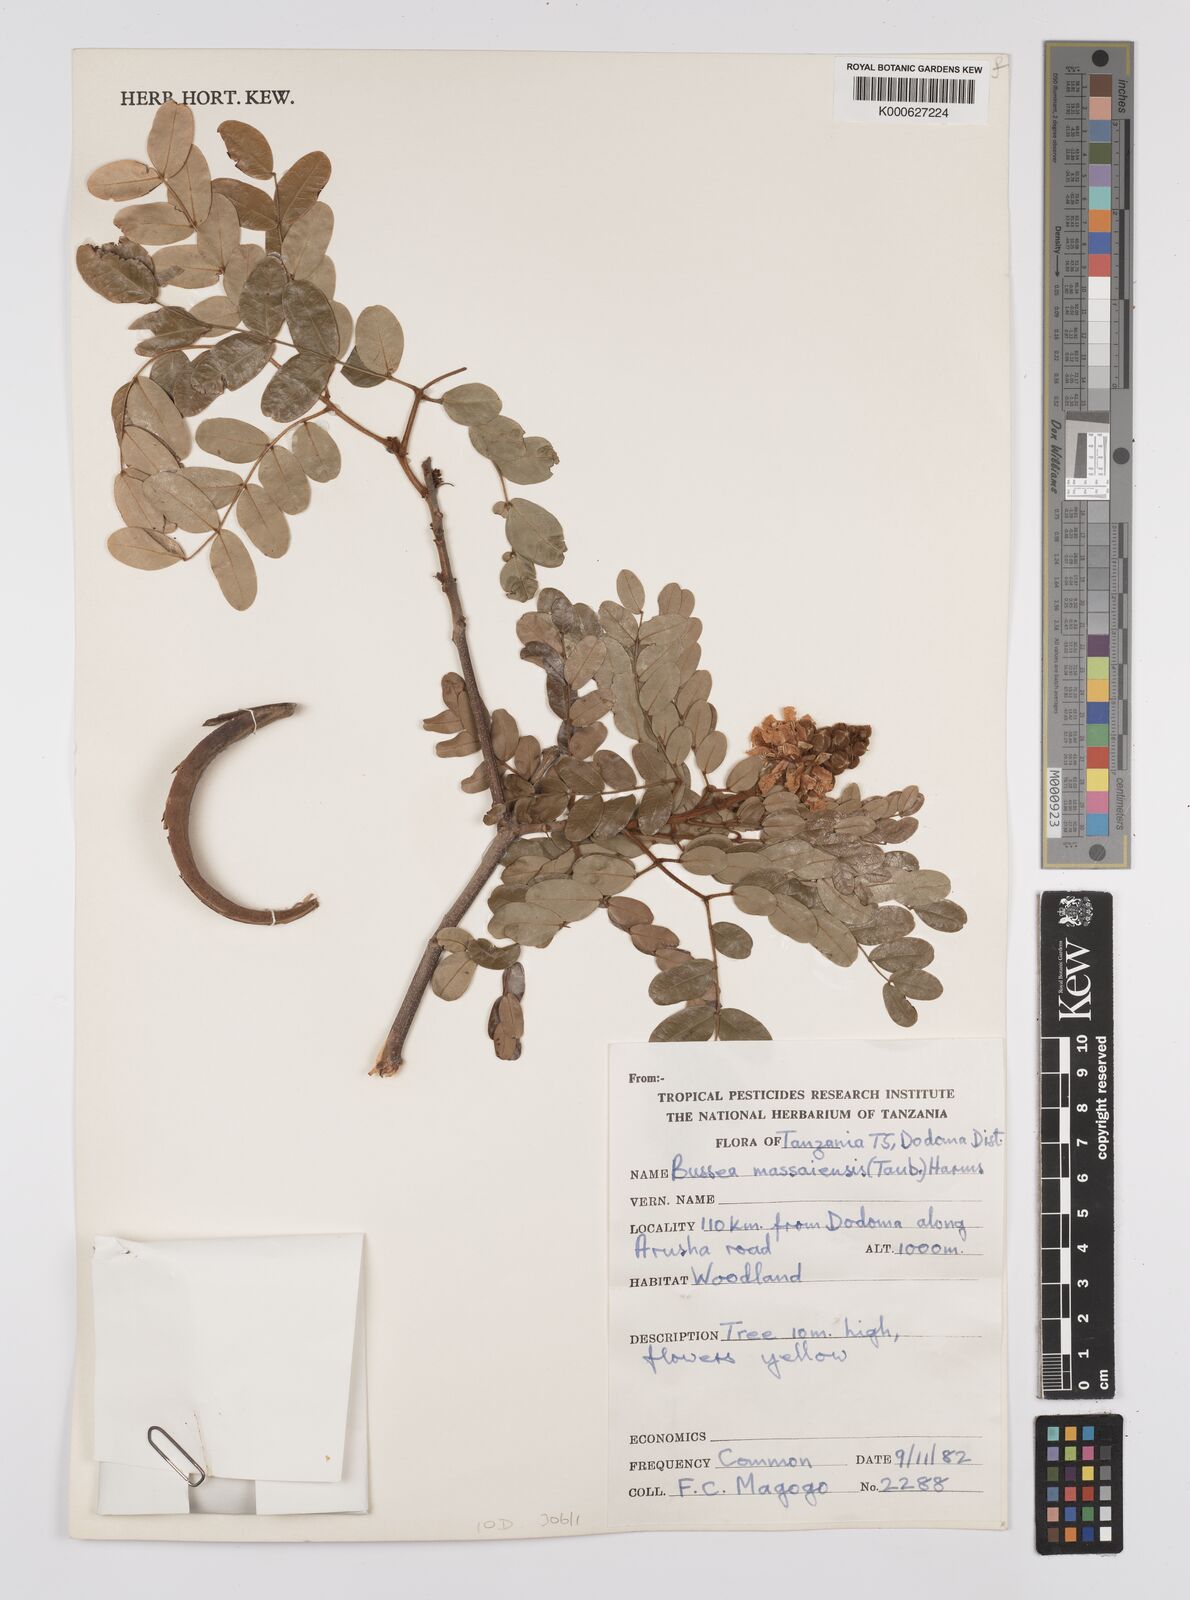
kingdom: Plantae
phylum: Tracheophyta
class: Magnoliopsida
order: Fabales
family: Fabaceae
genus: Bussea
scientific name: Bussea massaiensis
